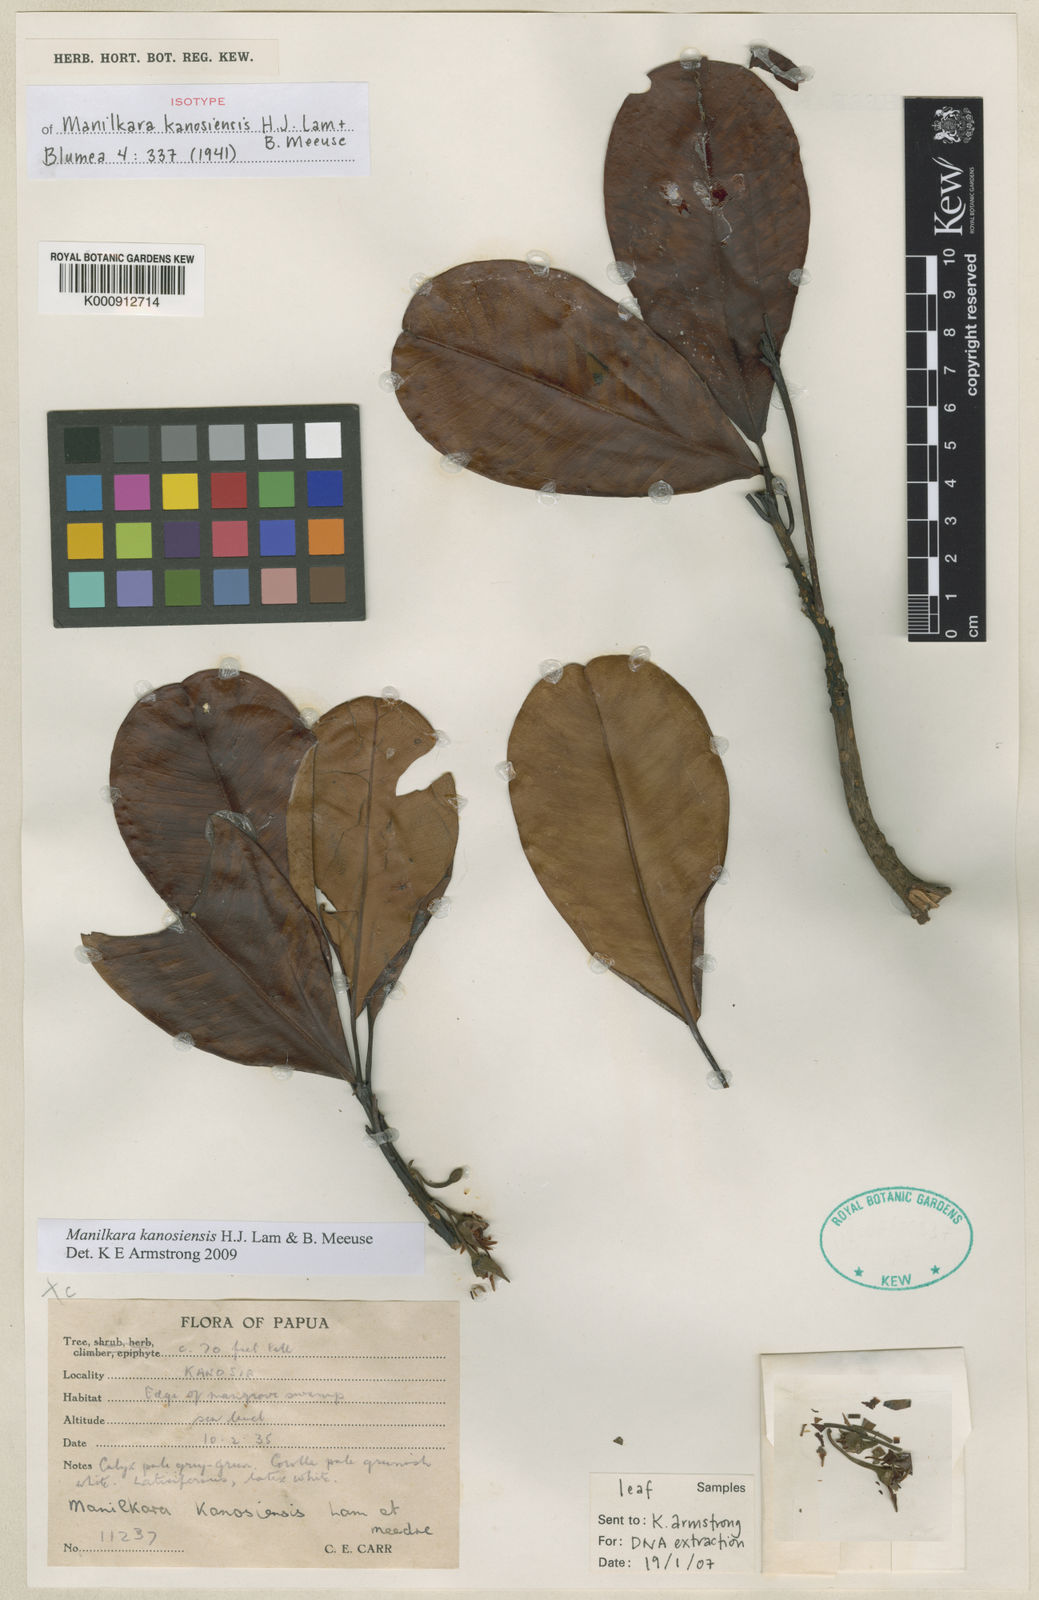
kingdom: Plantae
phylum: Tracheophyta
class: Magnoliopsida
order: Ericales
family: Sapotaceae
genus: Manilkara
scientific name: Manilkara kanosiensis
